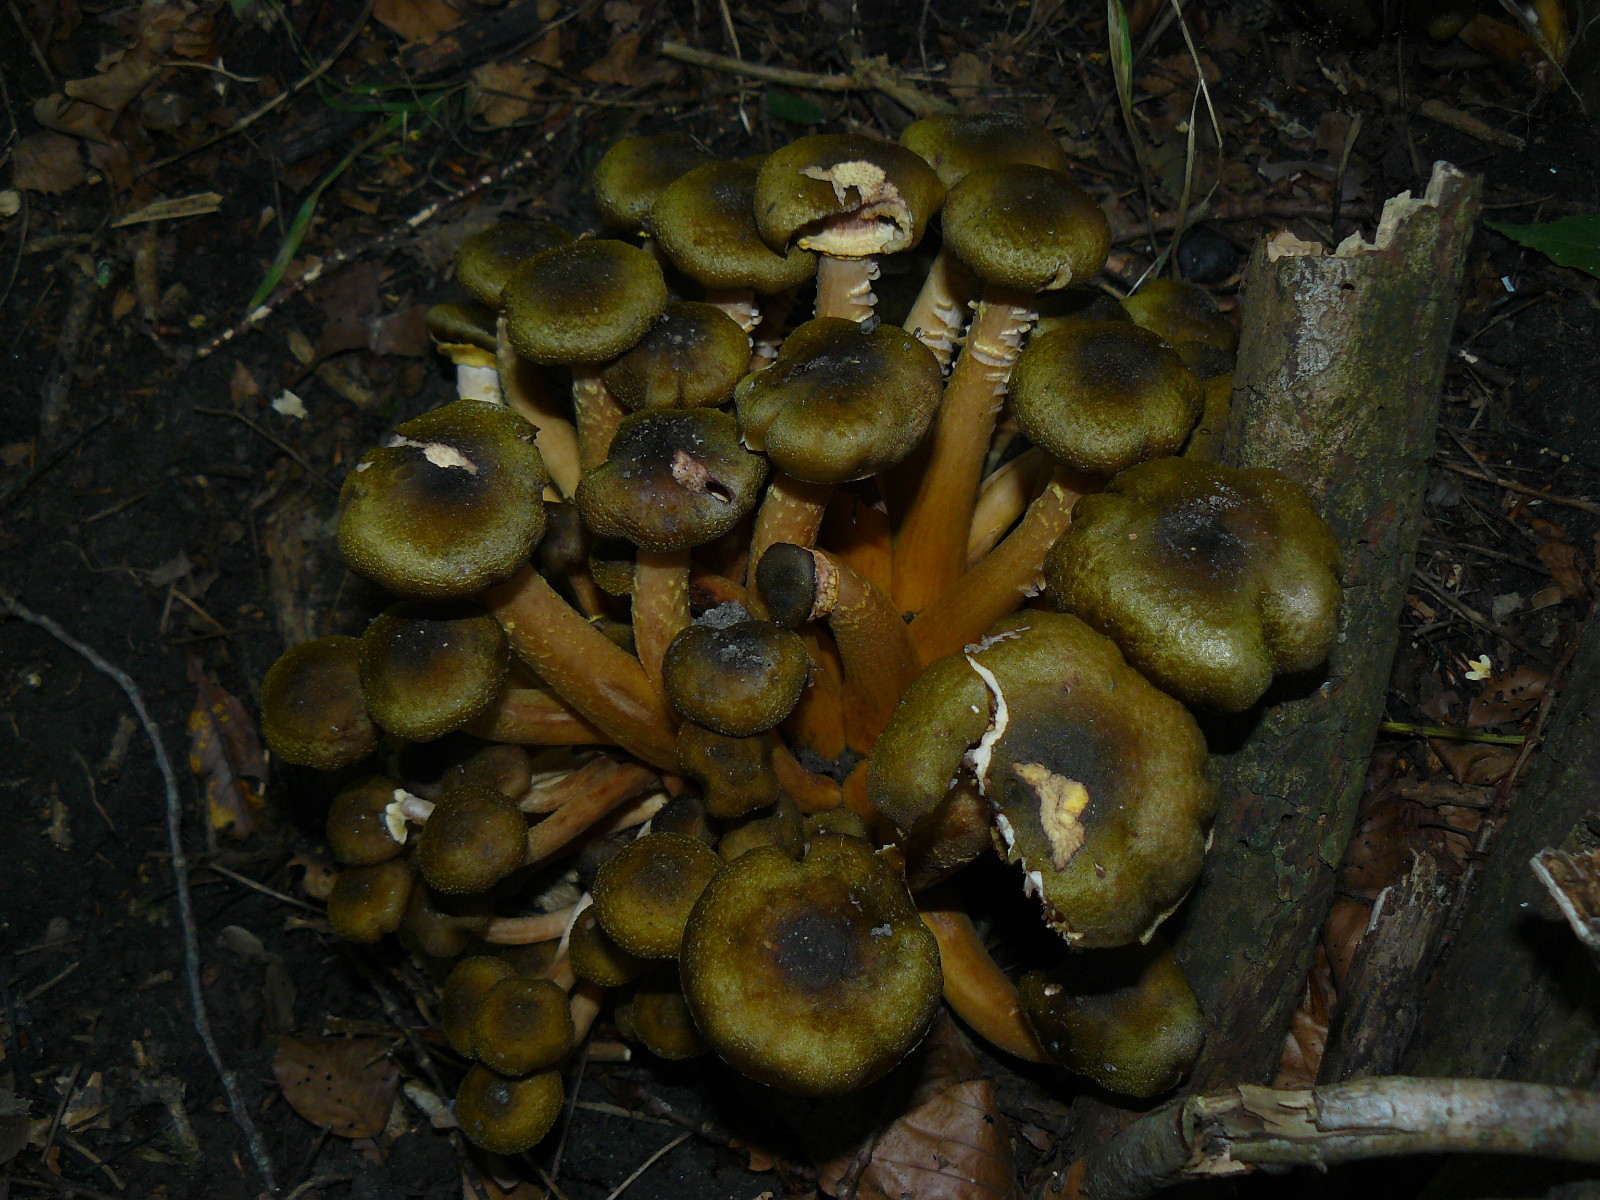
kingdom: Fungi
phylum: Basidiomycota
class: Agaricomycetes
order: Agaricales
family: Physalacriaceae
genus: Armillaria
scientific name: Armillaria mellea
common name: ægte honningsvamp
